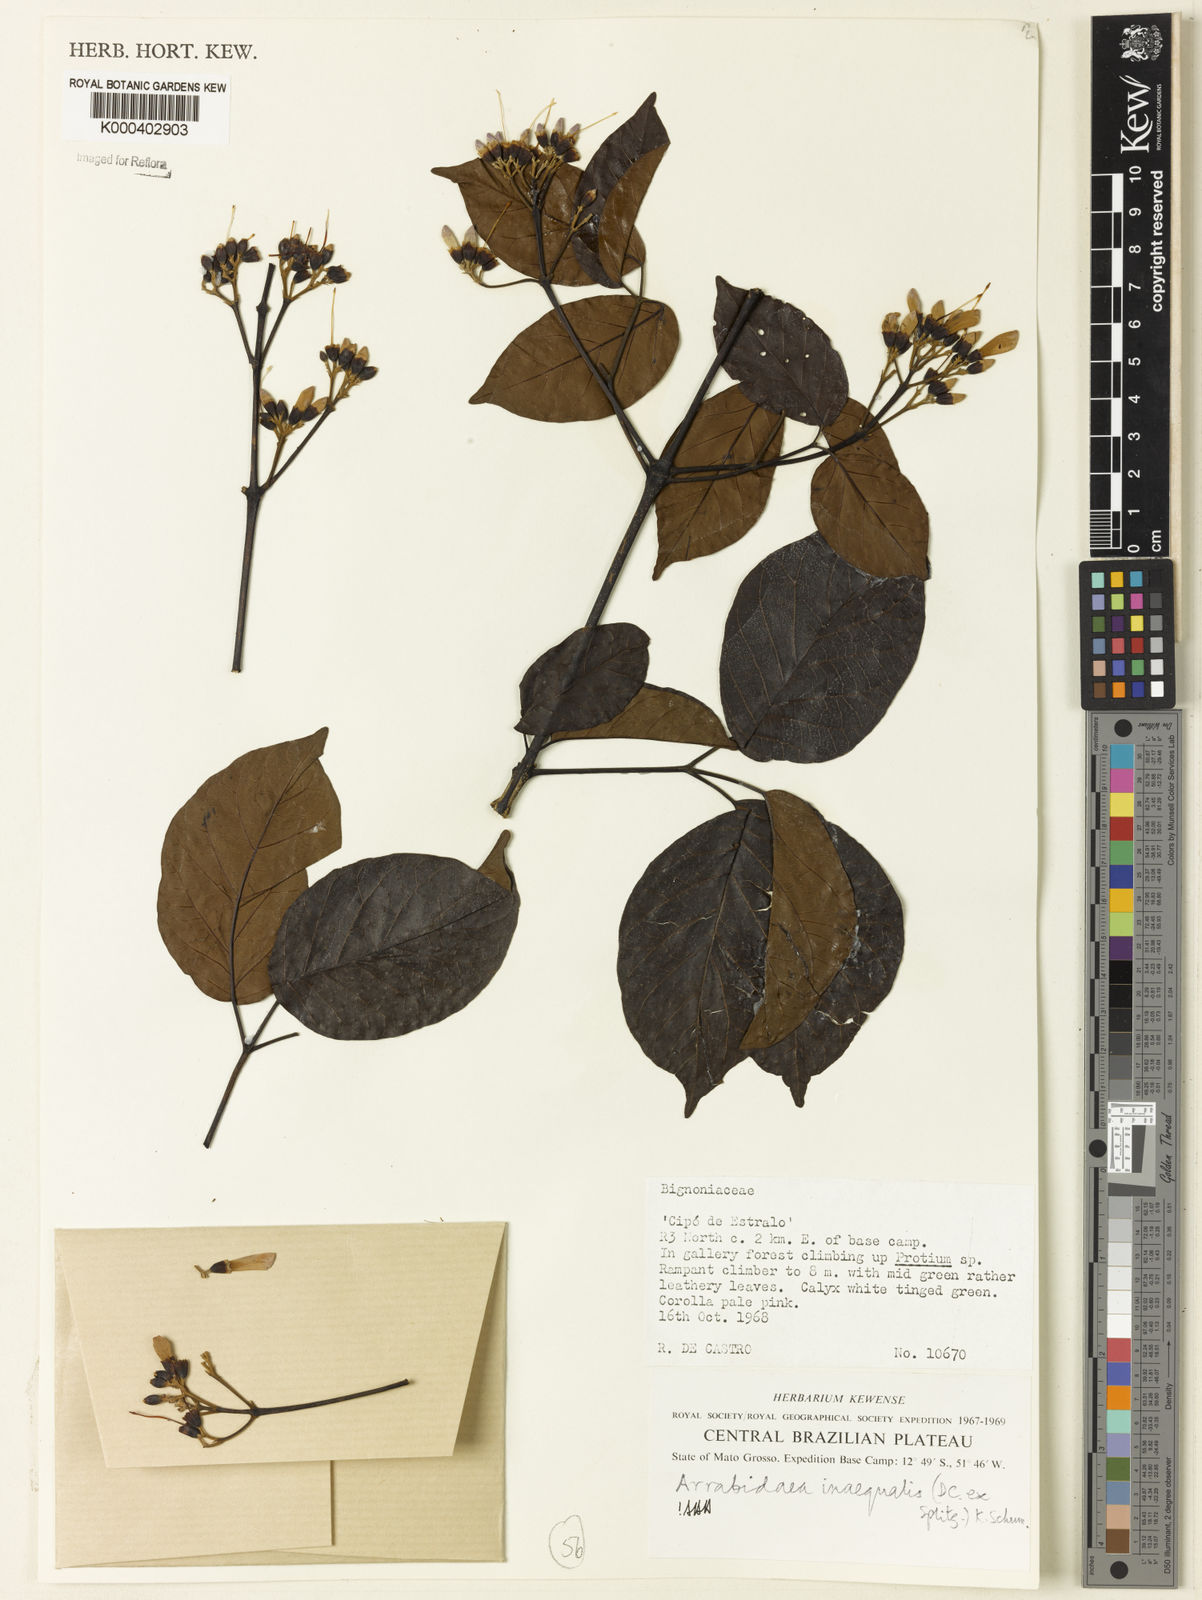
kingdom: Plantae
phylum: Tracheophyta
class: Magnoliopsida
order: Lamiales
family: Bignoniaceae
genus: Cuspidaria
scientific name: Cuspidaria inaequalis
